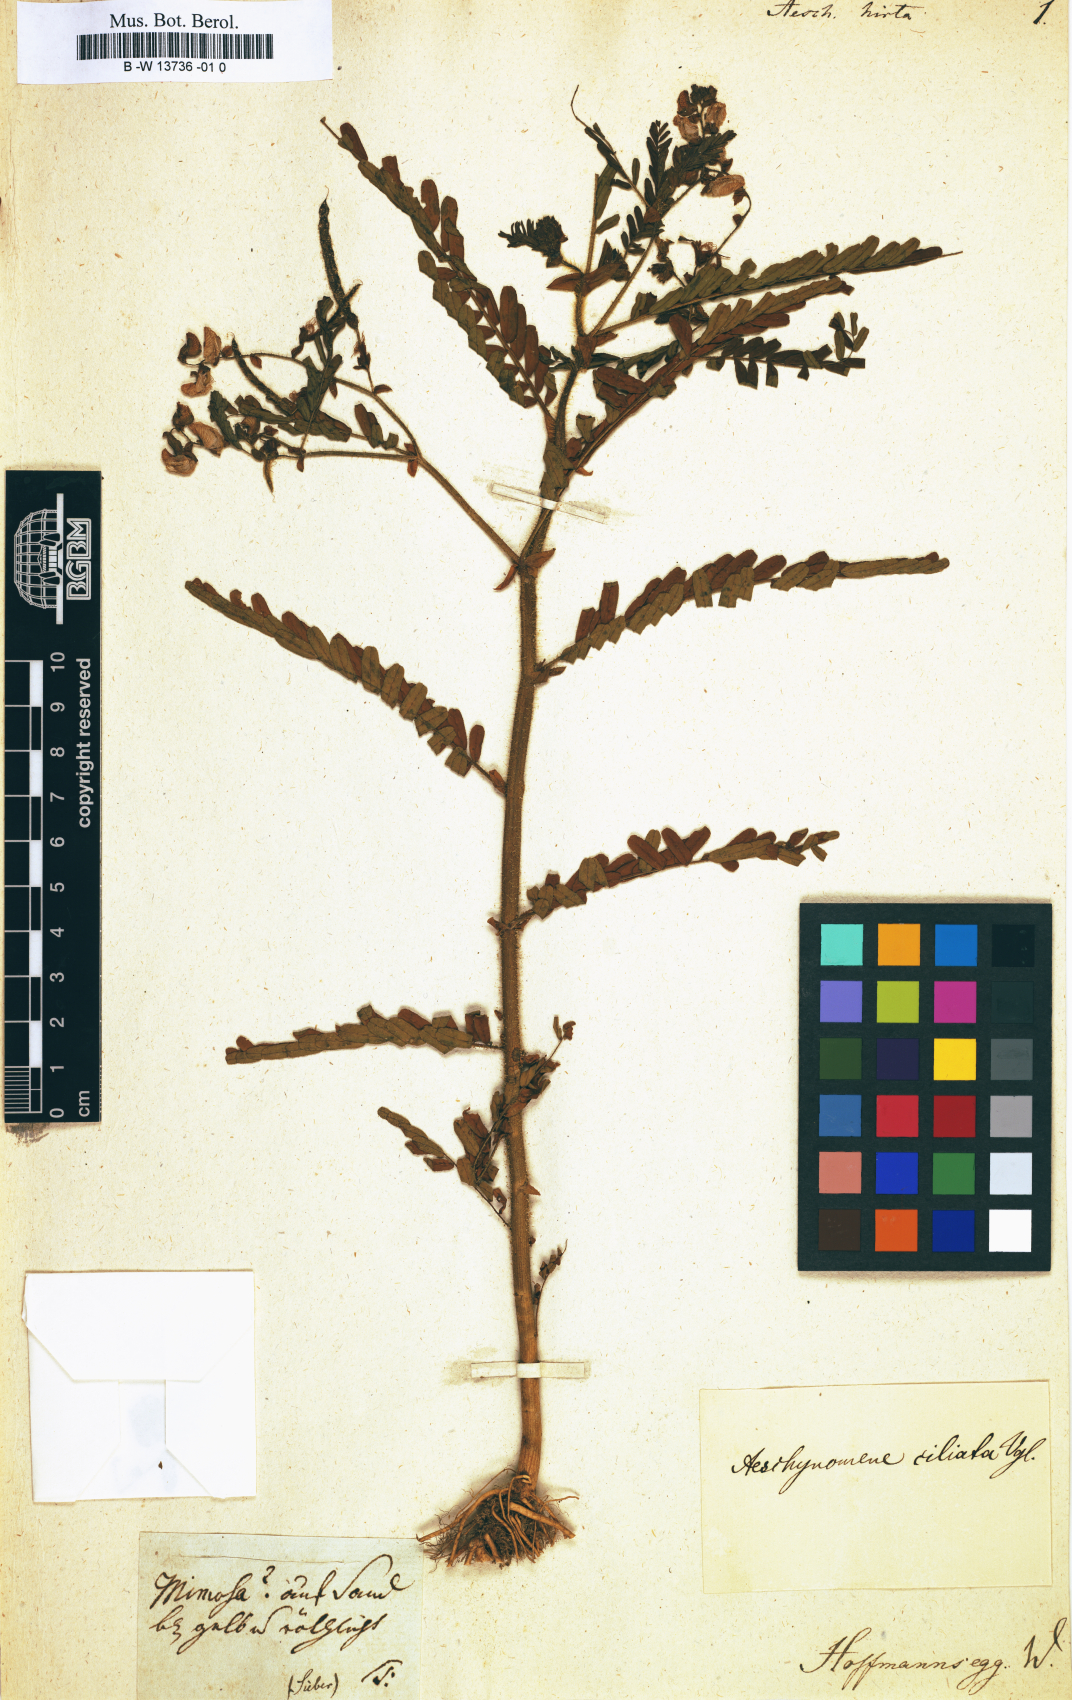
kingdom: Plantae
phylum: Tracheophyta
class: Magnoliopsida
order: Fabales
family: Fabaceae
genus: Aeschynomene
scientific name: Aeschynomene hirta
